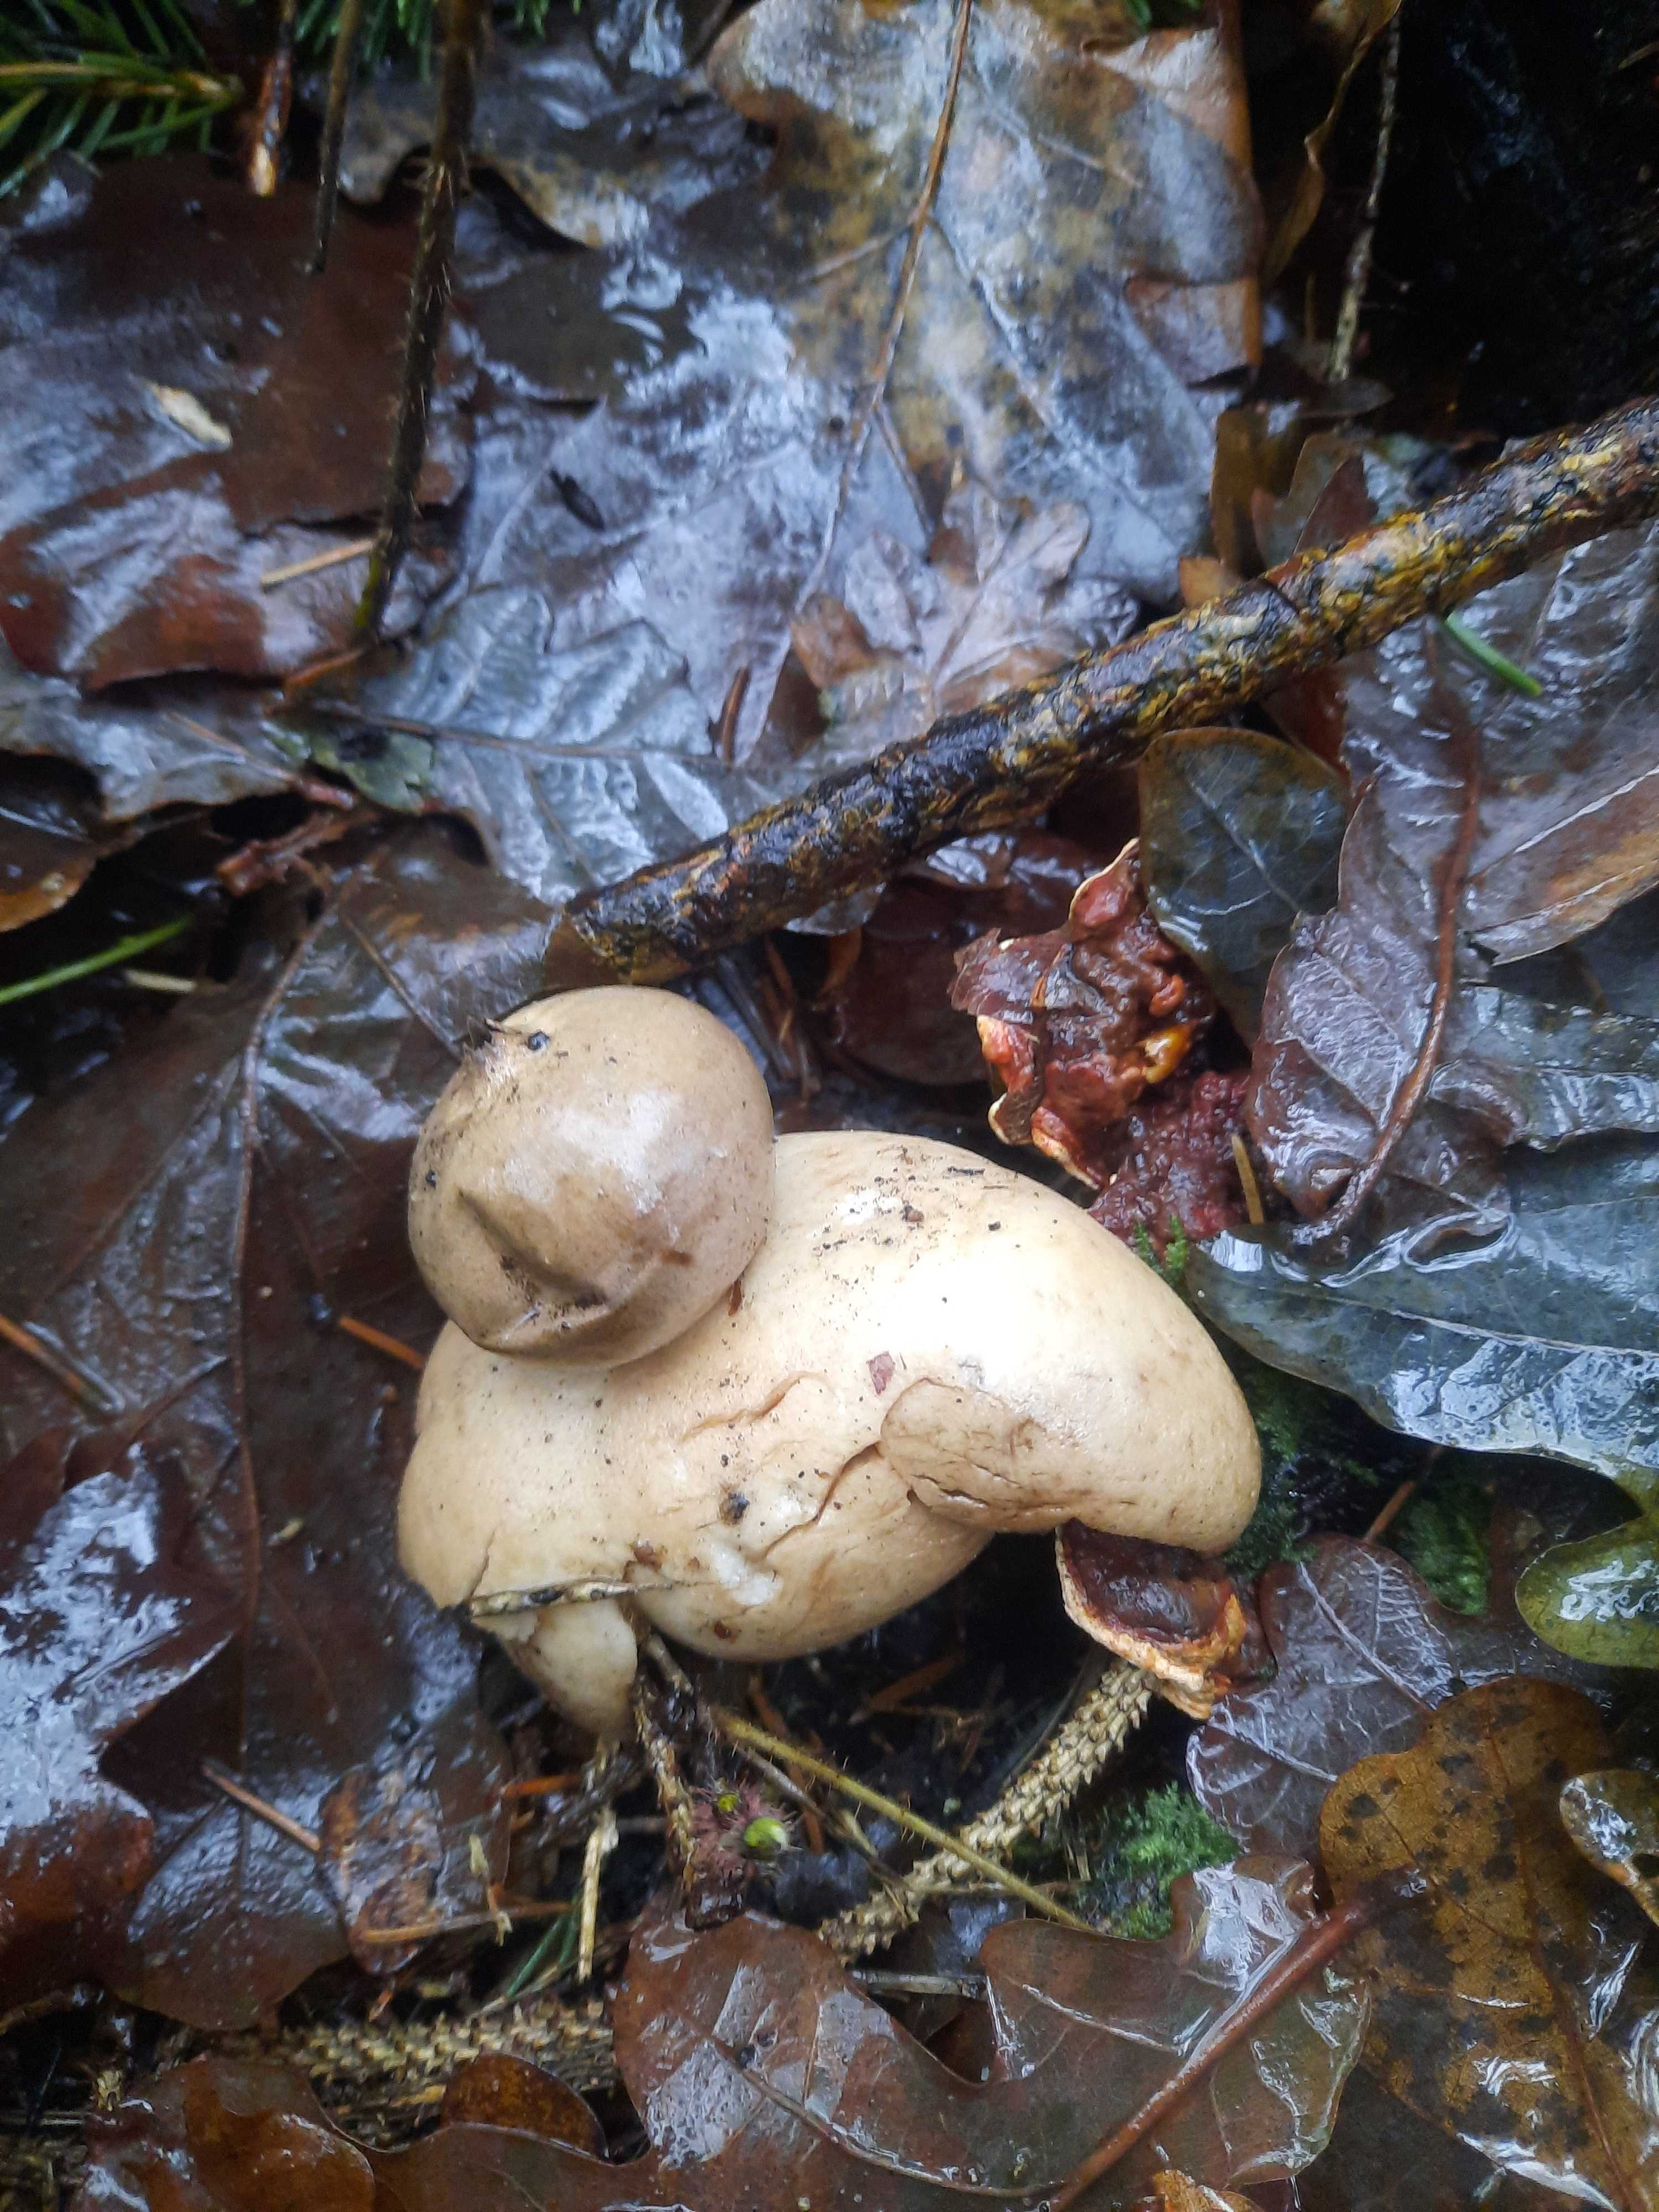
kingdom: Fungi
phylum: Basidiomycota
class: Agaricomycetes
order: Geastrales
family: Geastraceae
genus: Geastrum
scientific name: Geastrum
